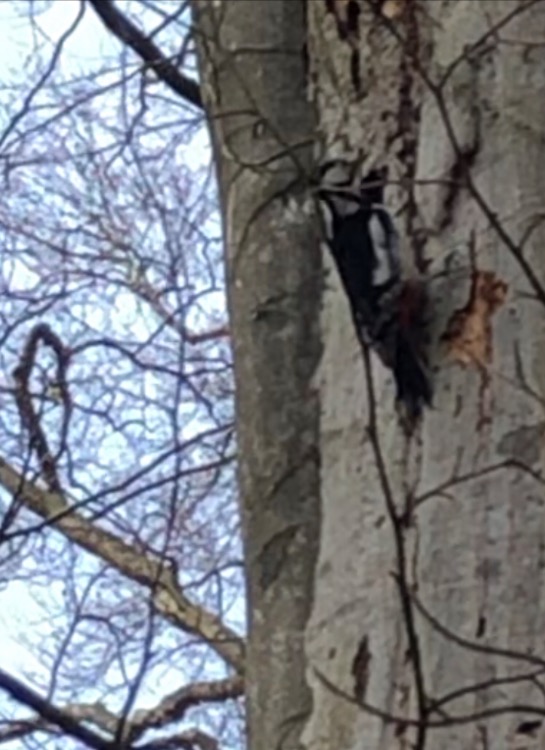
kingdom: Animalia
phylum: Chordata
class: Aves
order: Piciformes
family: Picidae
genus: Dendrocopos
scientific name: Dendrocopos major
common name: Stor flagspætte
